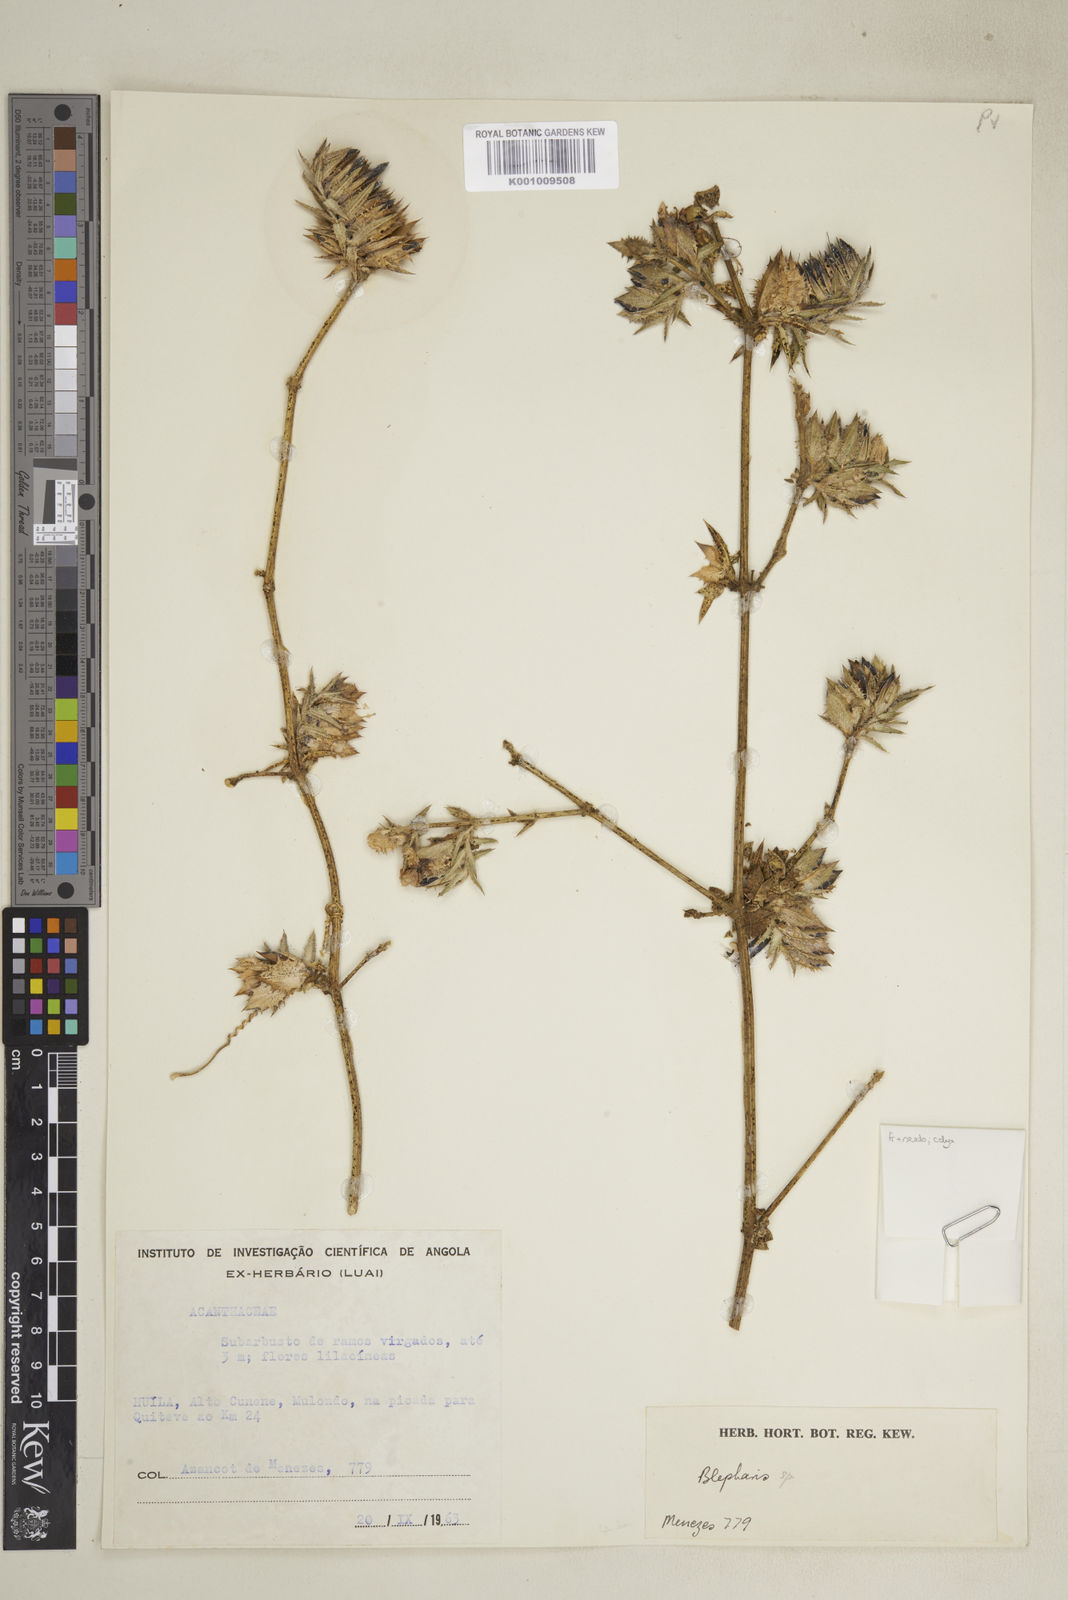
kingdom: Plantae
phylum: Tracheophyta
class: Magnoliopsida
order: Lamiales
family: Acanthaceae
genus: Barleria
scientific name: Barleria
